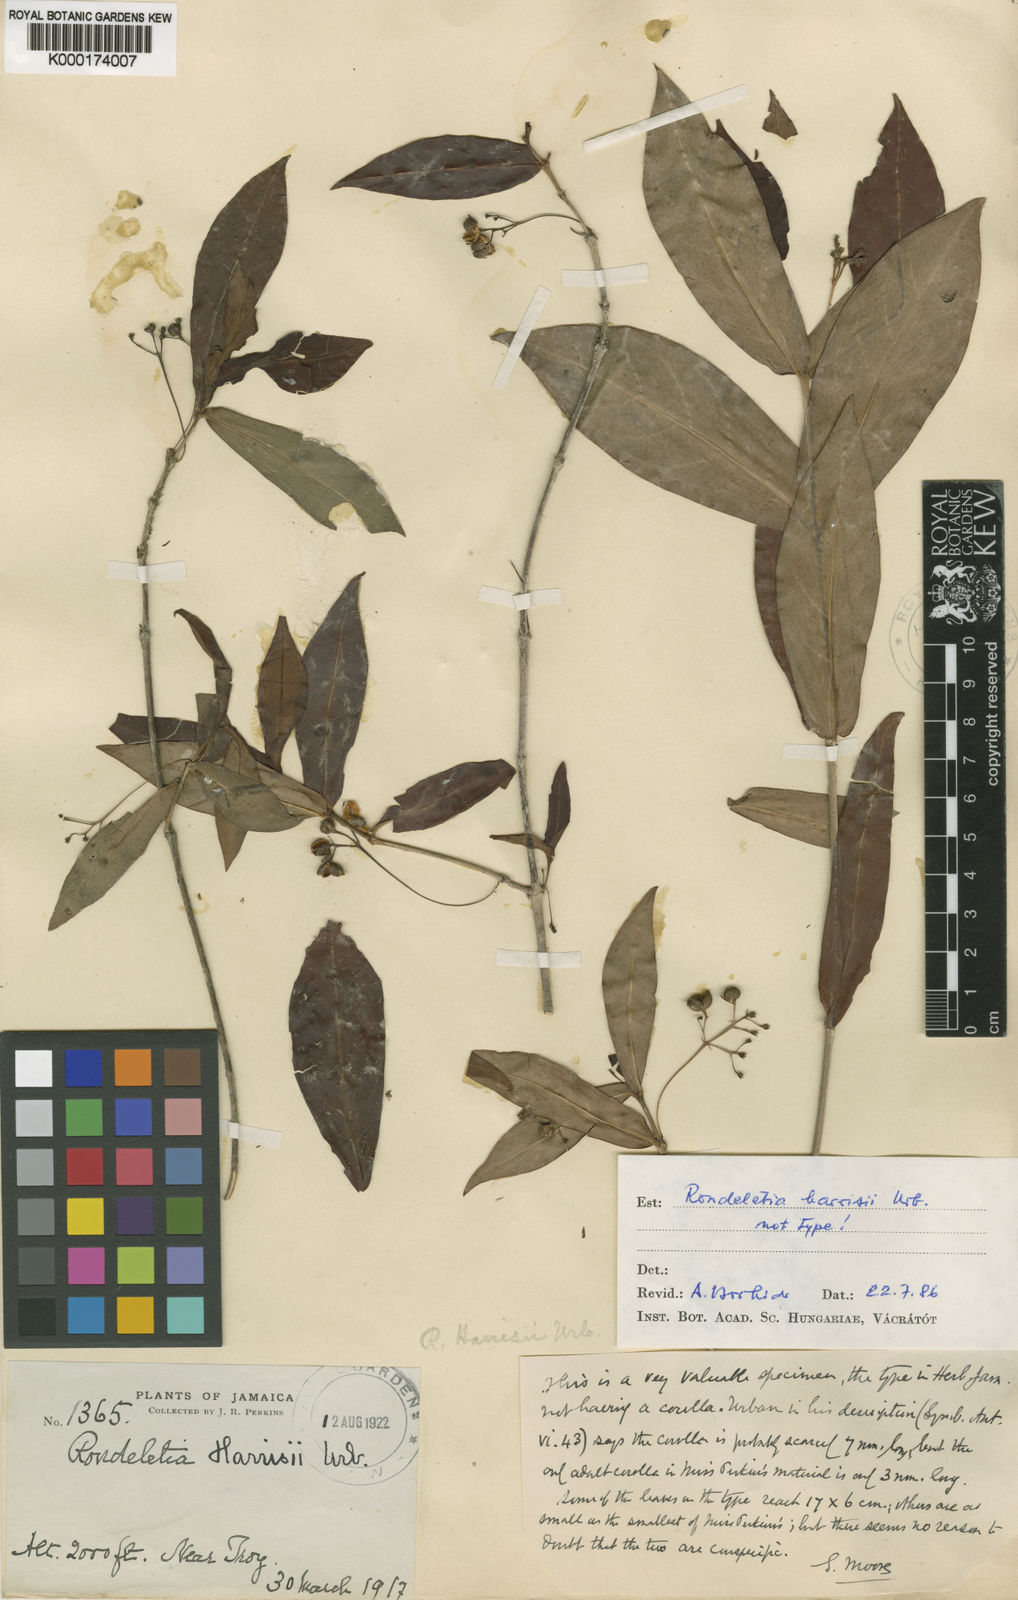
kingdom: Plantae
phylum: Tracheophyta
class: Magnoliopsida
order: Gentianales
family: Rubiaceae
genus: Rondeletia
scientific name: Rondeletia harrisii
